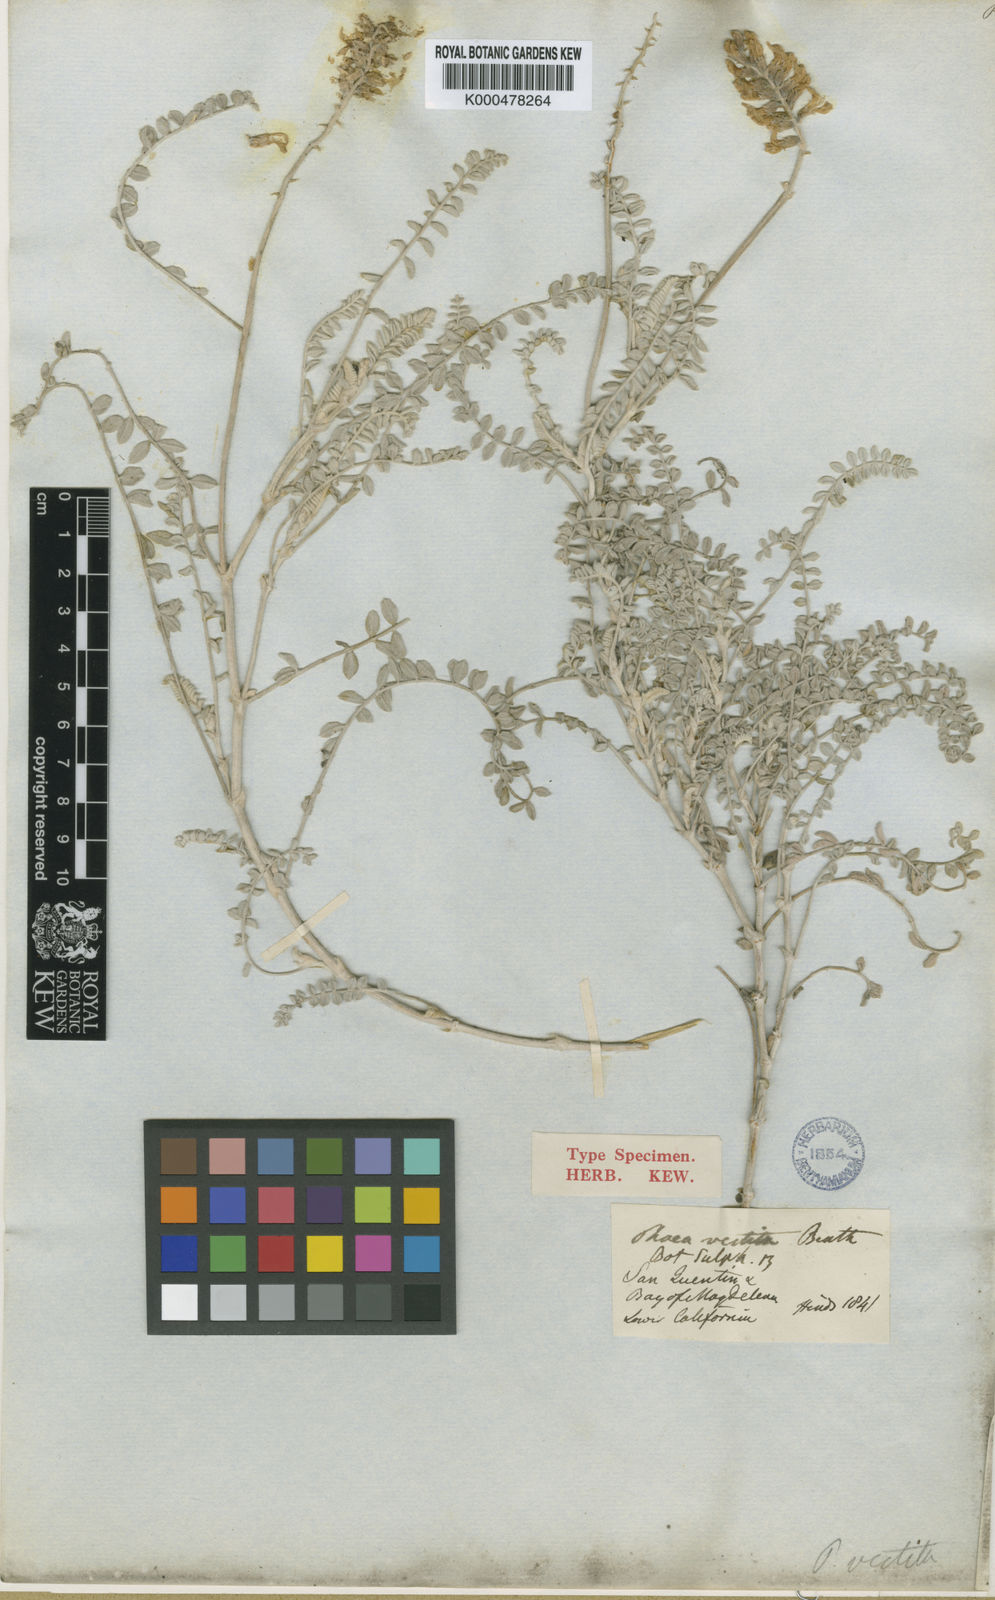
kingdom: Plantae
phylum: Tracheophyta
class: Magnoliopsida
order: Fabales
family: Fabaceae
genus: Astragalus
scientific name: Astragalus crotalariae
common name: Salton milkvetch
